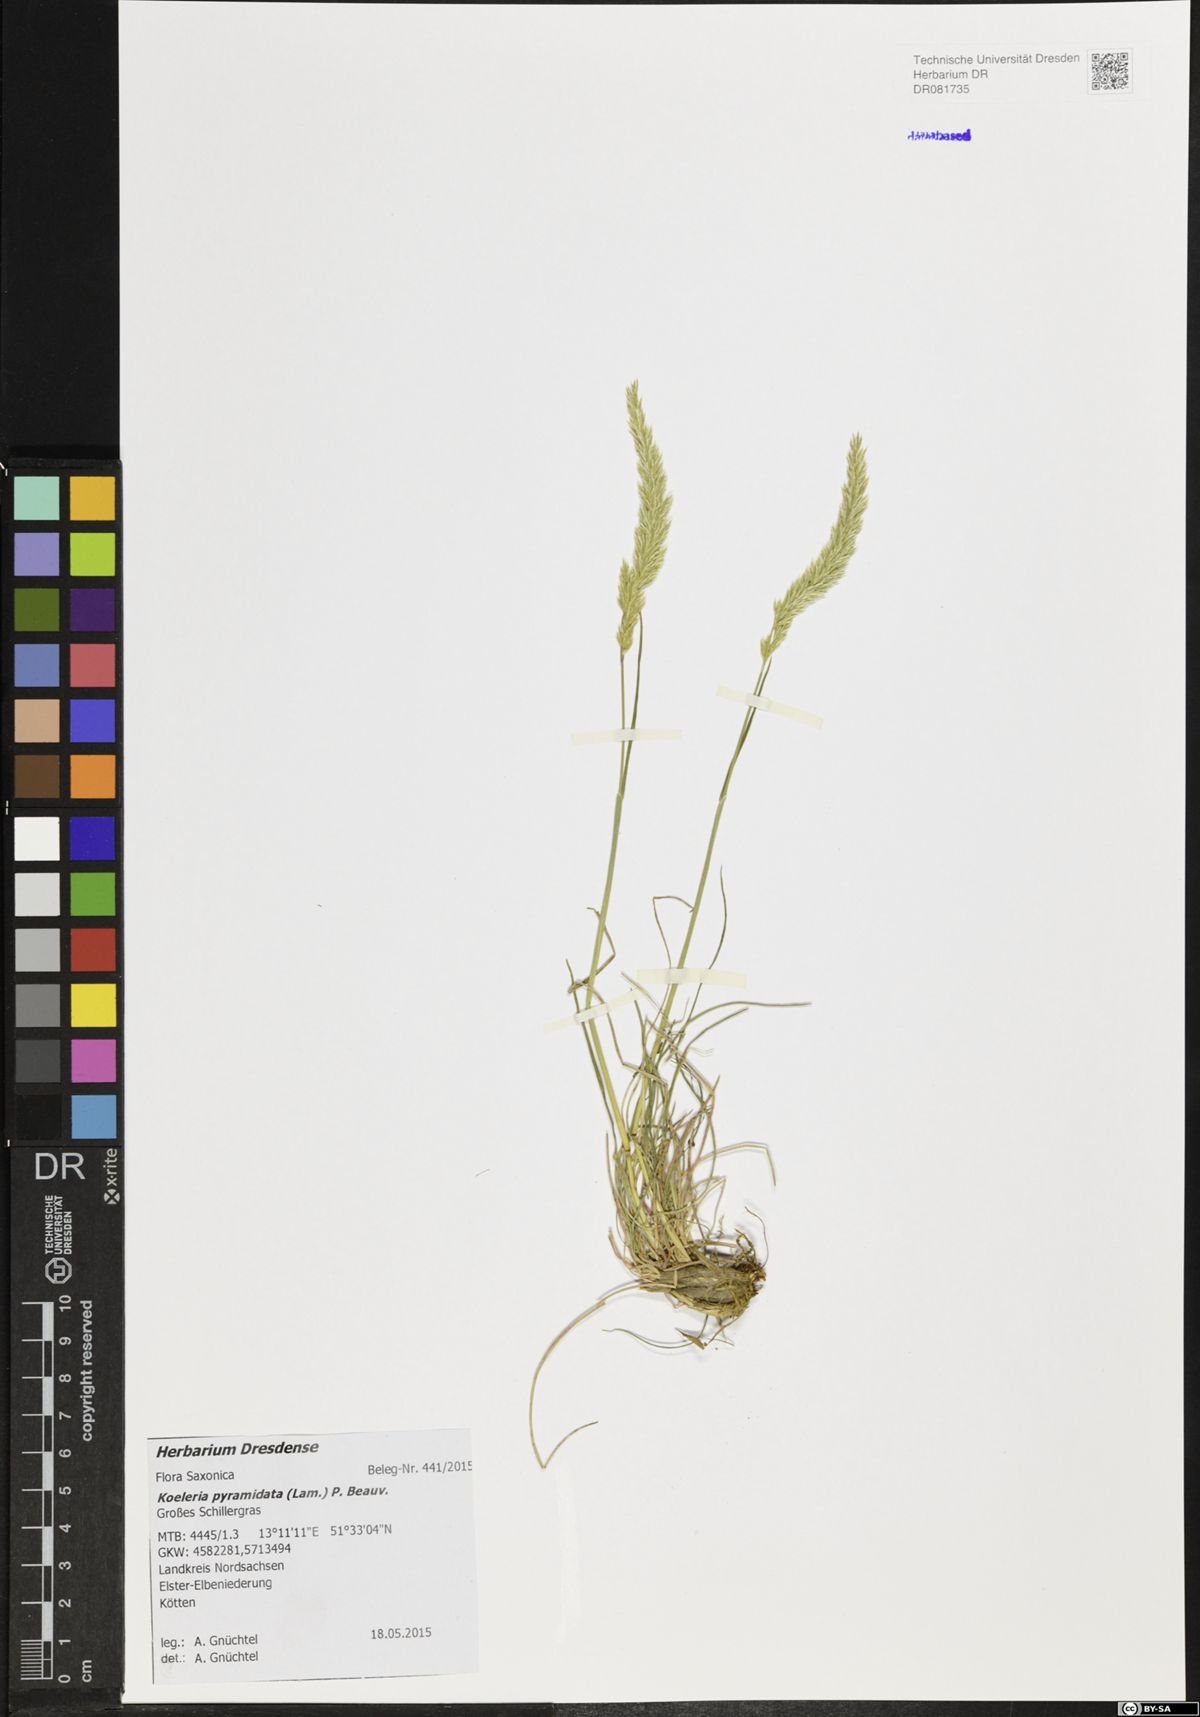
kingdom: Plantae
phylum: Tracheophyta
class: Liliopsida
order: Poales
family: Poaceae
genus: Koeleria
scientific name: Koeleria pyramidata
